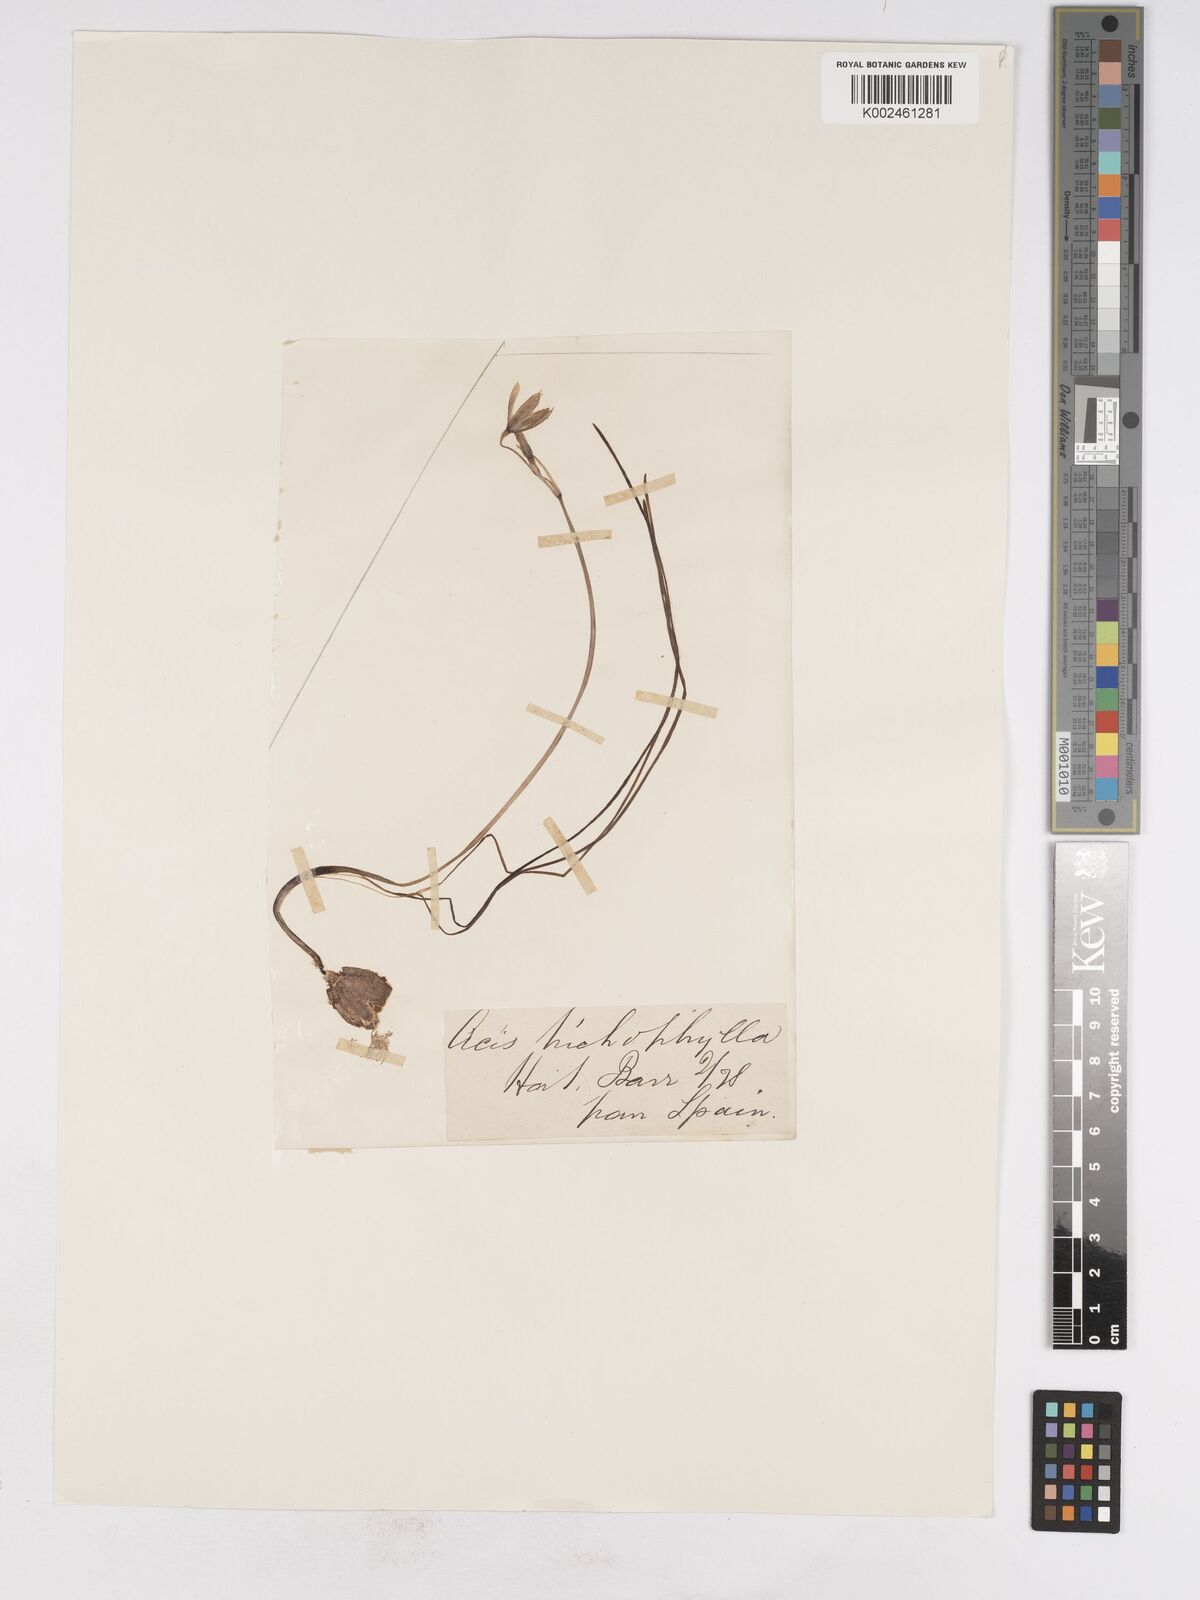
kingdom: Plantae
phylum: Tracheophyta
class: Liliopsida
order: Asparagales
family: Amaryllidaceae
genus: Acis
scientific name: Acis trichophylla
